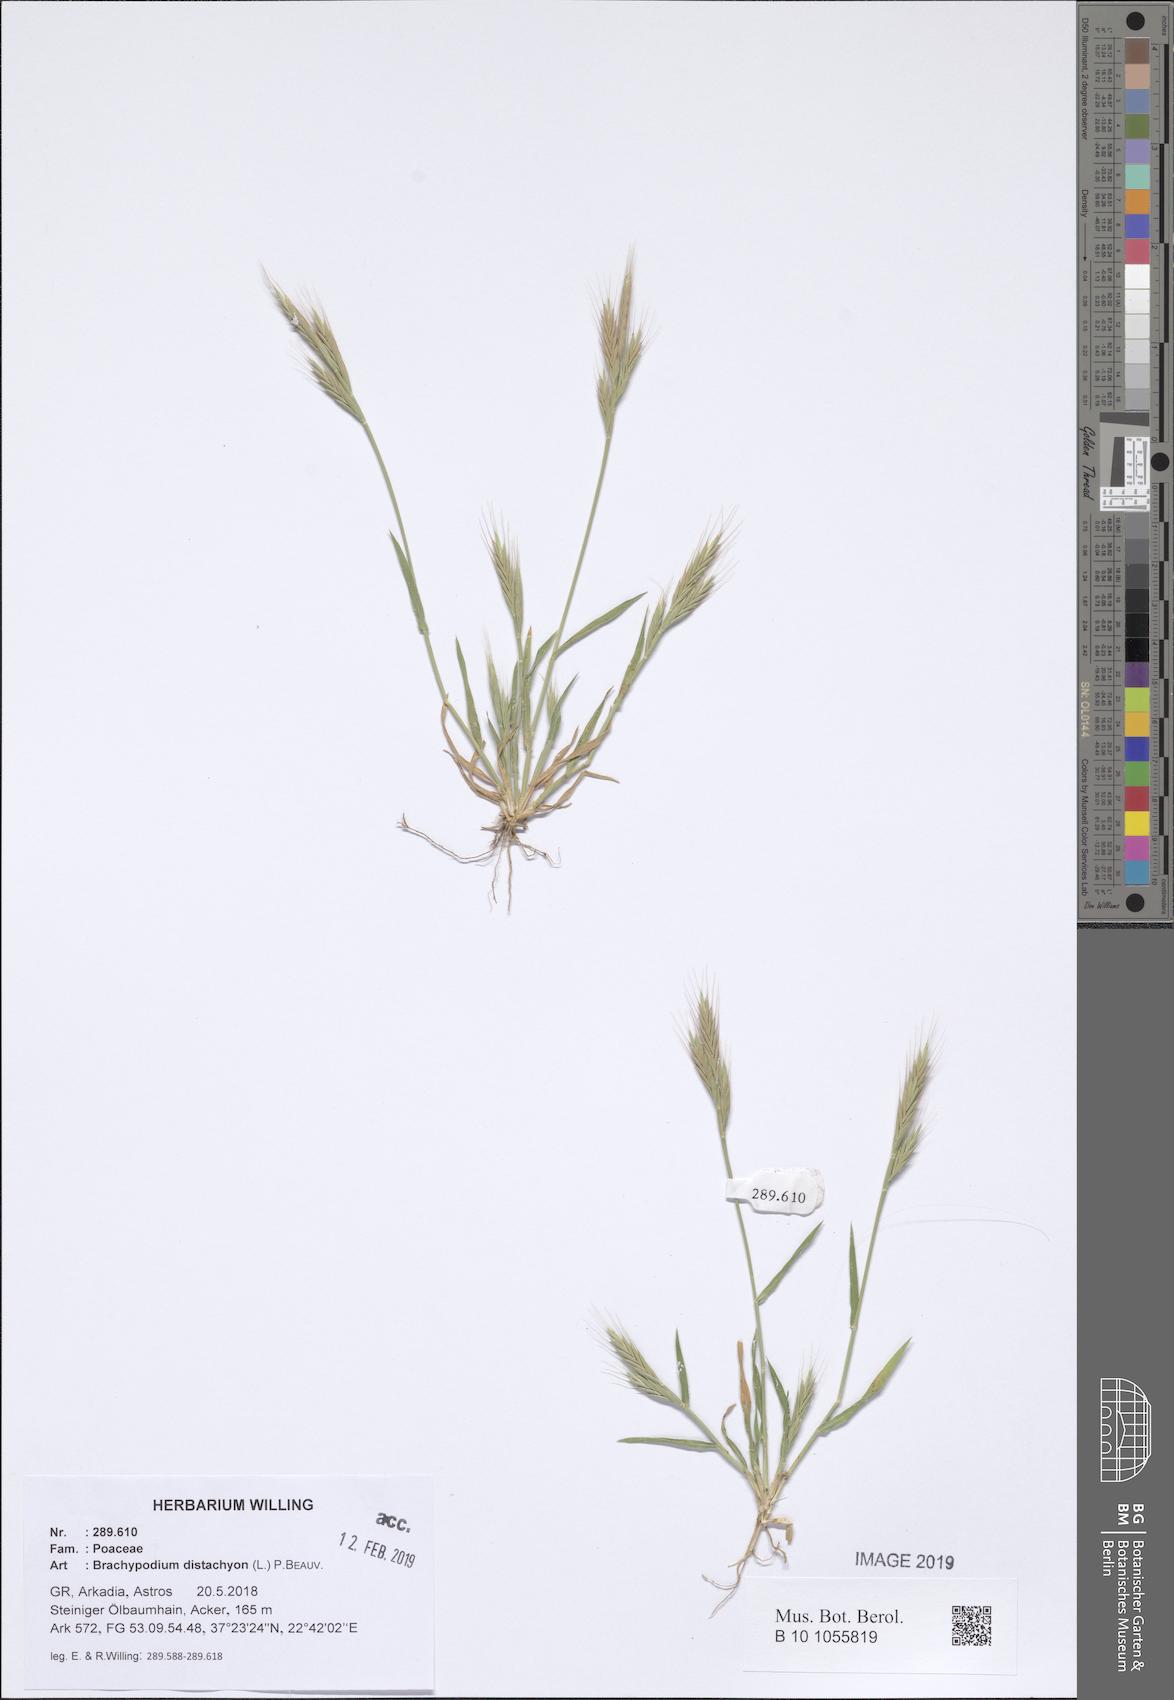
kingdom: Plantae
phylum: Tracheophyta
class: Liliopsida
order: Poales
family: Poaceae
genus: Brachypodium
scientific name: Brachypodium distachyon
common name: Stiff brome
